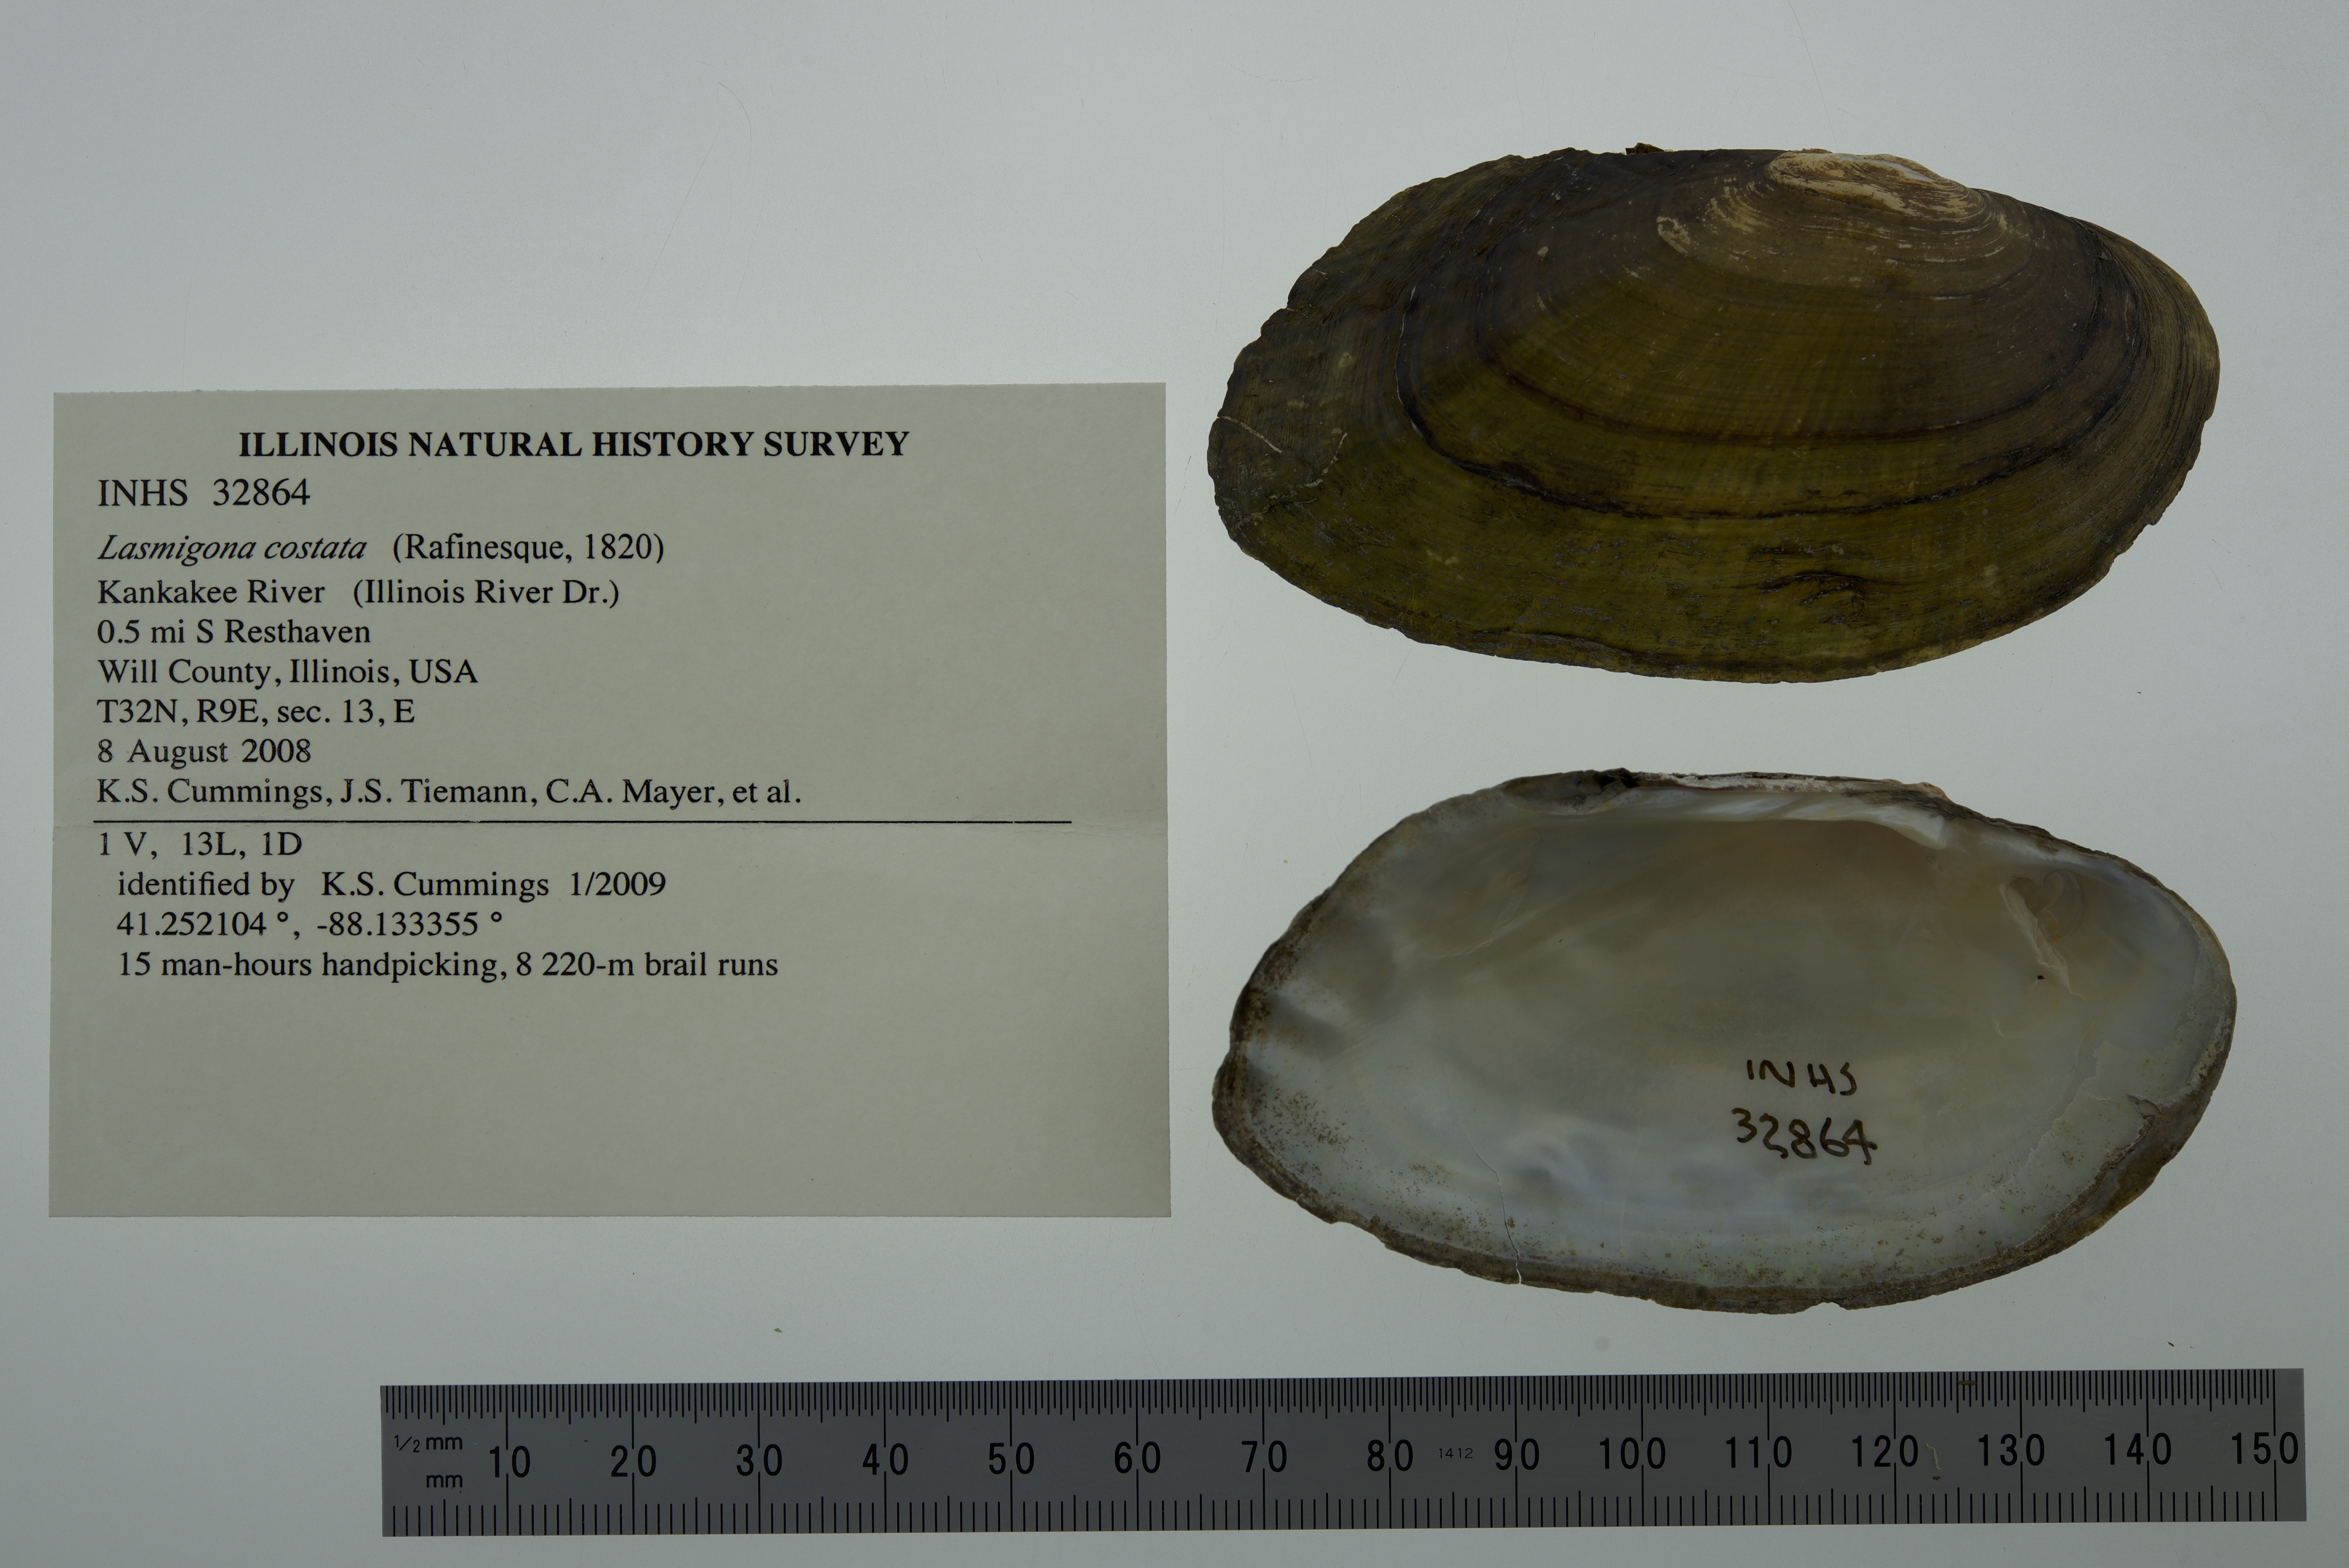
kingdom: Animalia
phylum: Mollusca
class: Bivalvia
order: Unionida
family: Unionidae
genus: Lasmigona
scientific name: Lasmigona costata
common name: Flutedshell
